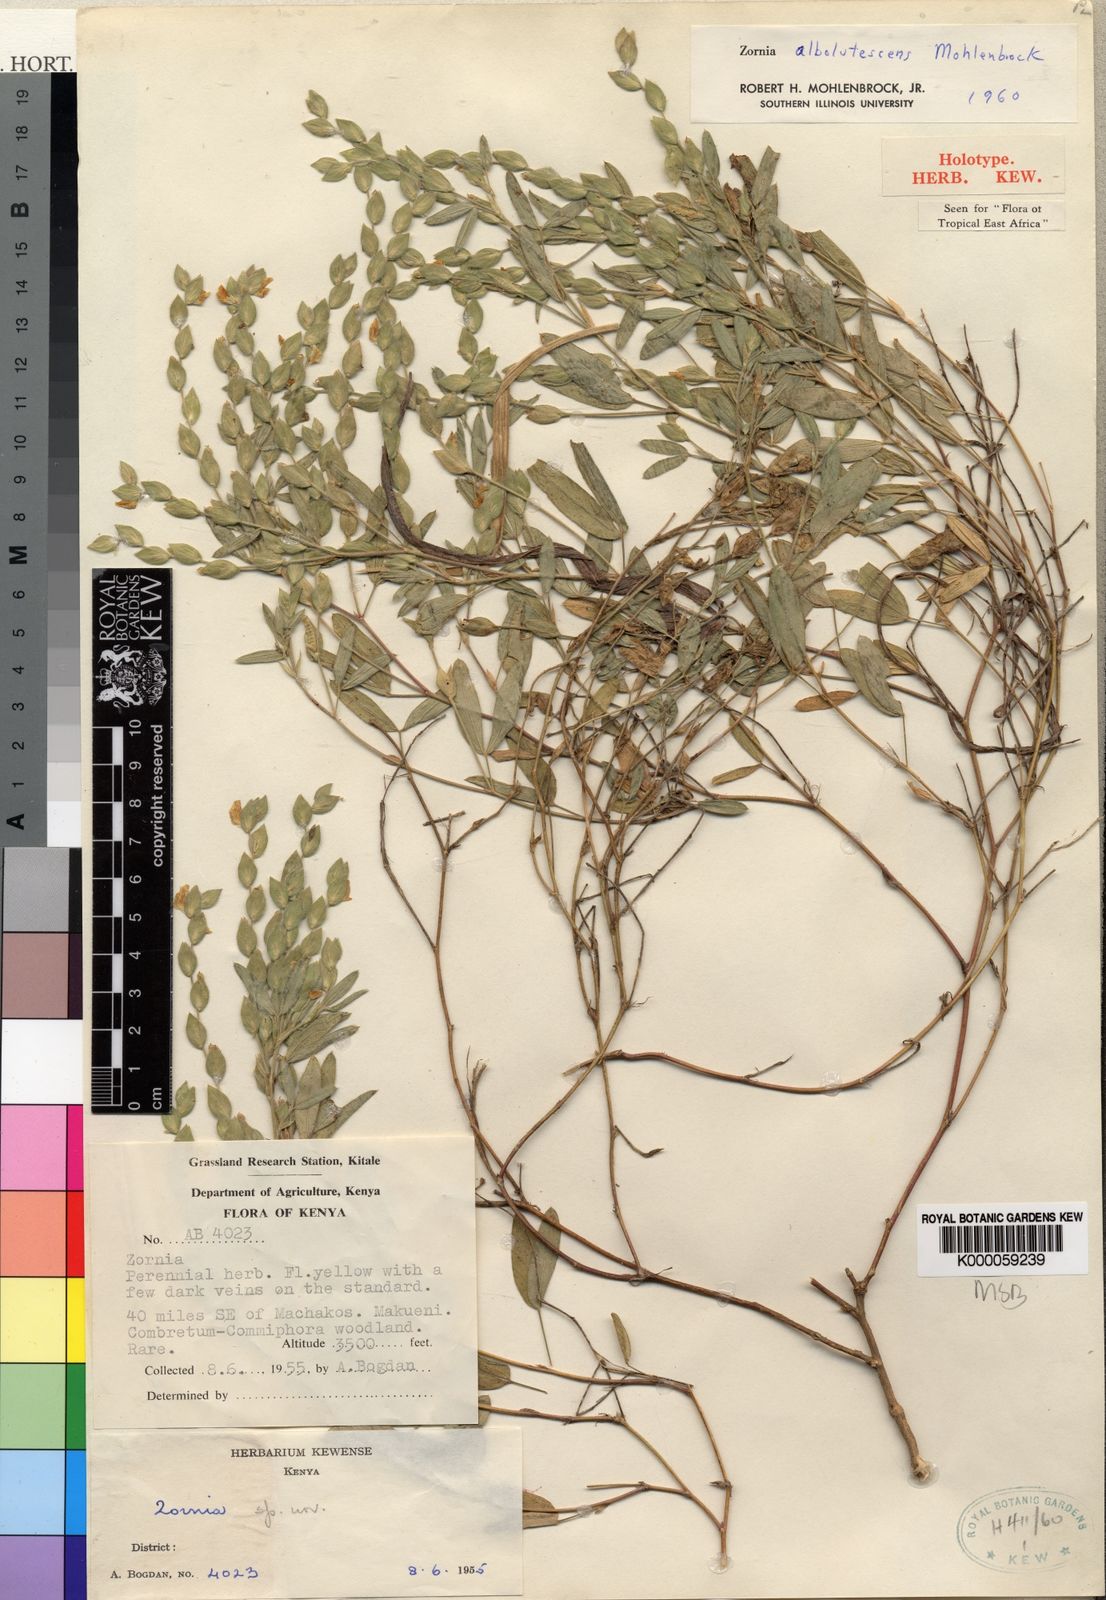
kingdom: Plantae
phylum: Tracheophyta
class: Magnoliopsida
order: Fabales
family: Fabaceae
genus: Zornia
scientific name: Zornia albolutescens
